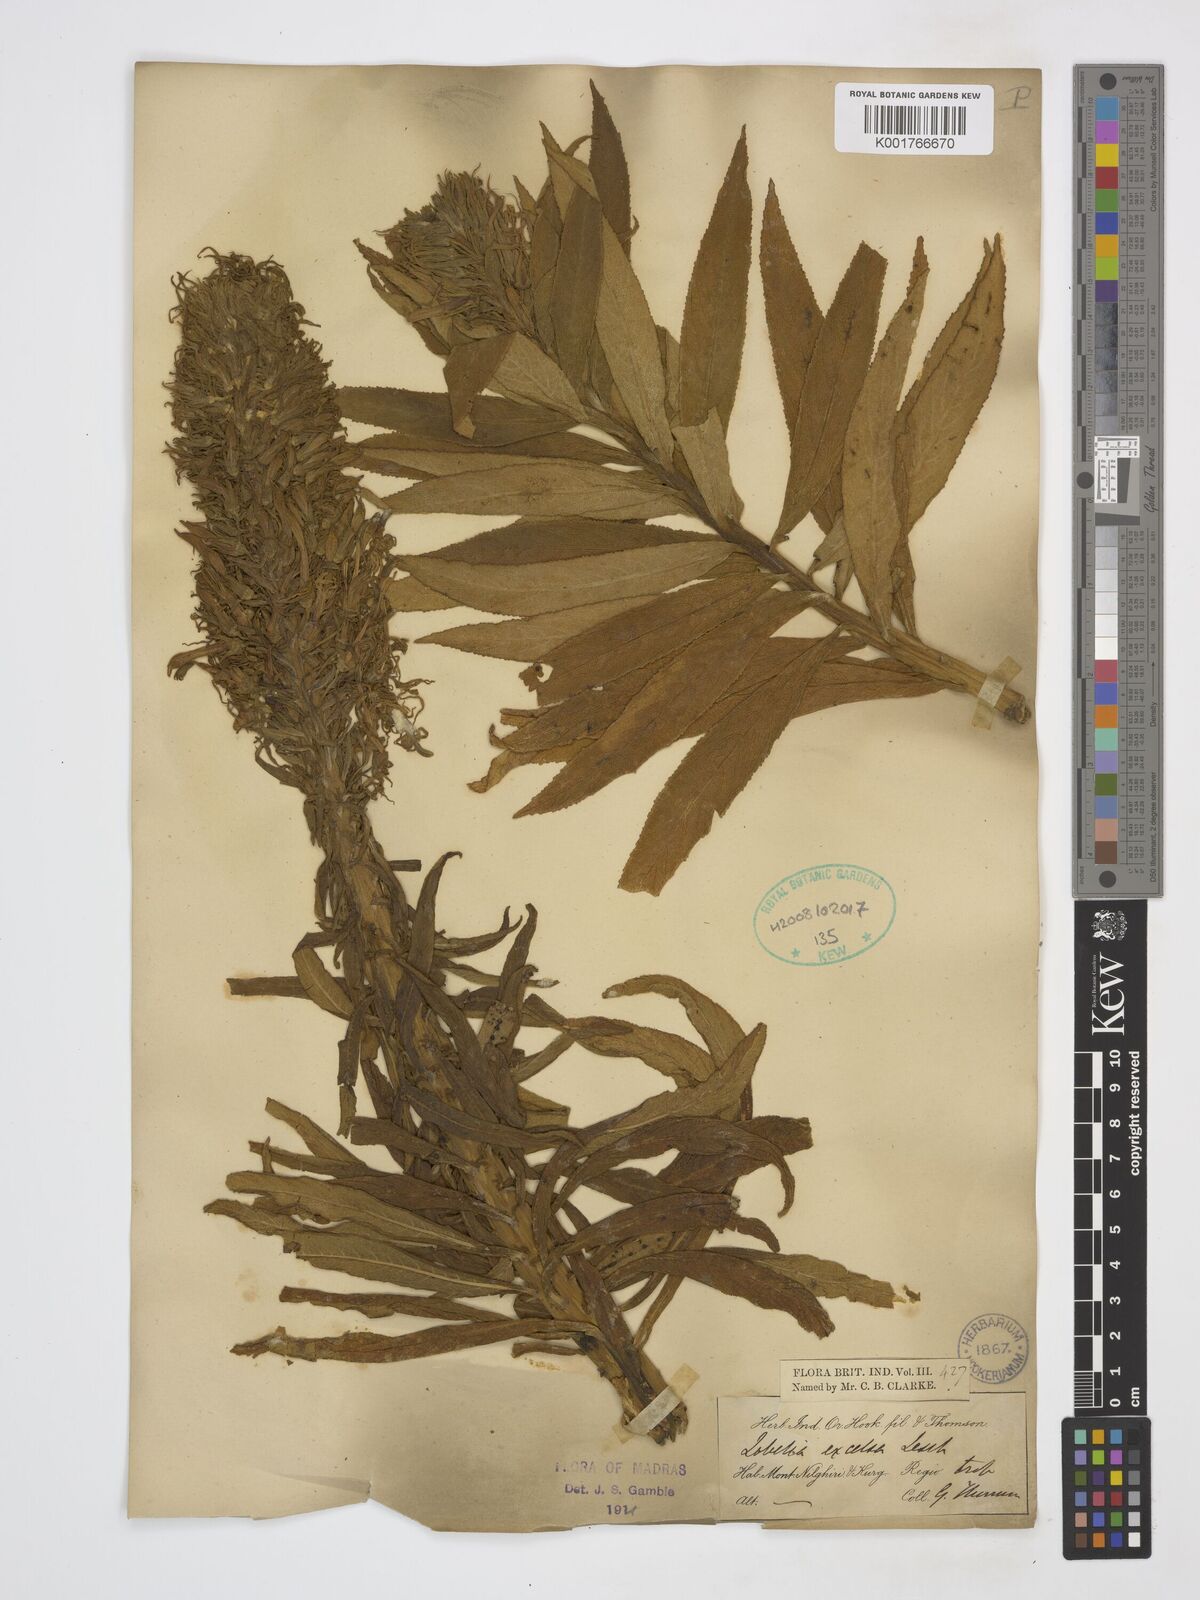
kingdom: Plantae
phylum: Tracheophyta
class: Magnoliopsida
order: Asterales
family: Campanulaceae
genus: Lobelia
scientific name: Lobelia excelsa
